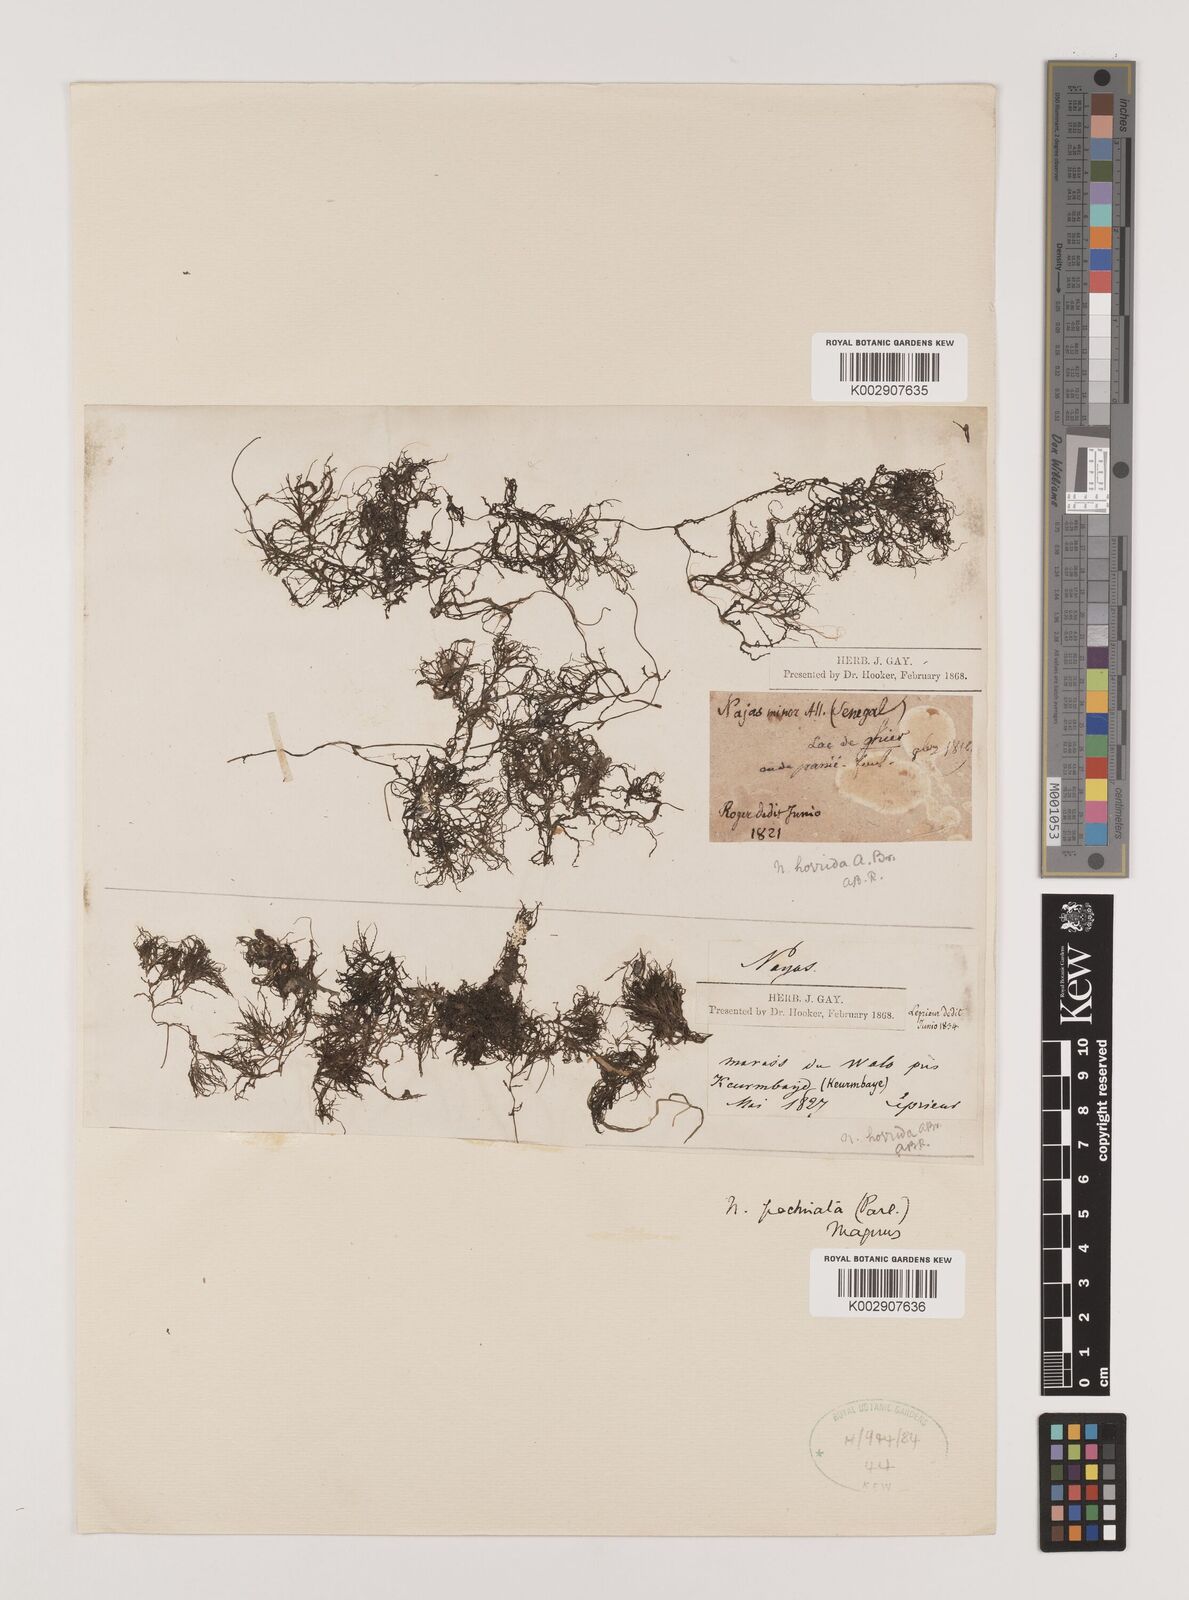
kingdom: Plantae
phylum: Tracheophyta
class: Liliopsida
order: Alismatales
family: Hydrocharitaceae
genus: Najas
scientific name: Najas baldwinii
